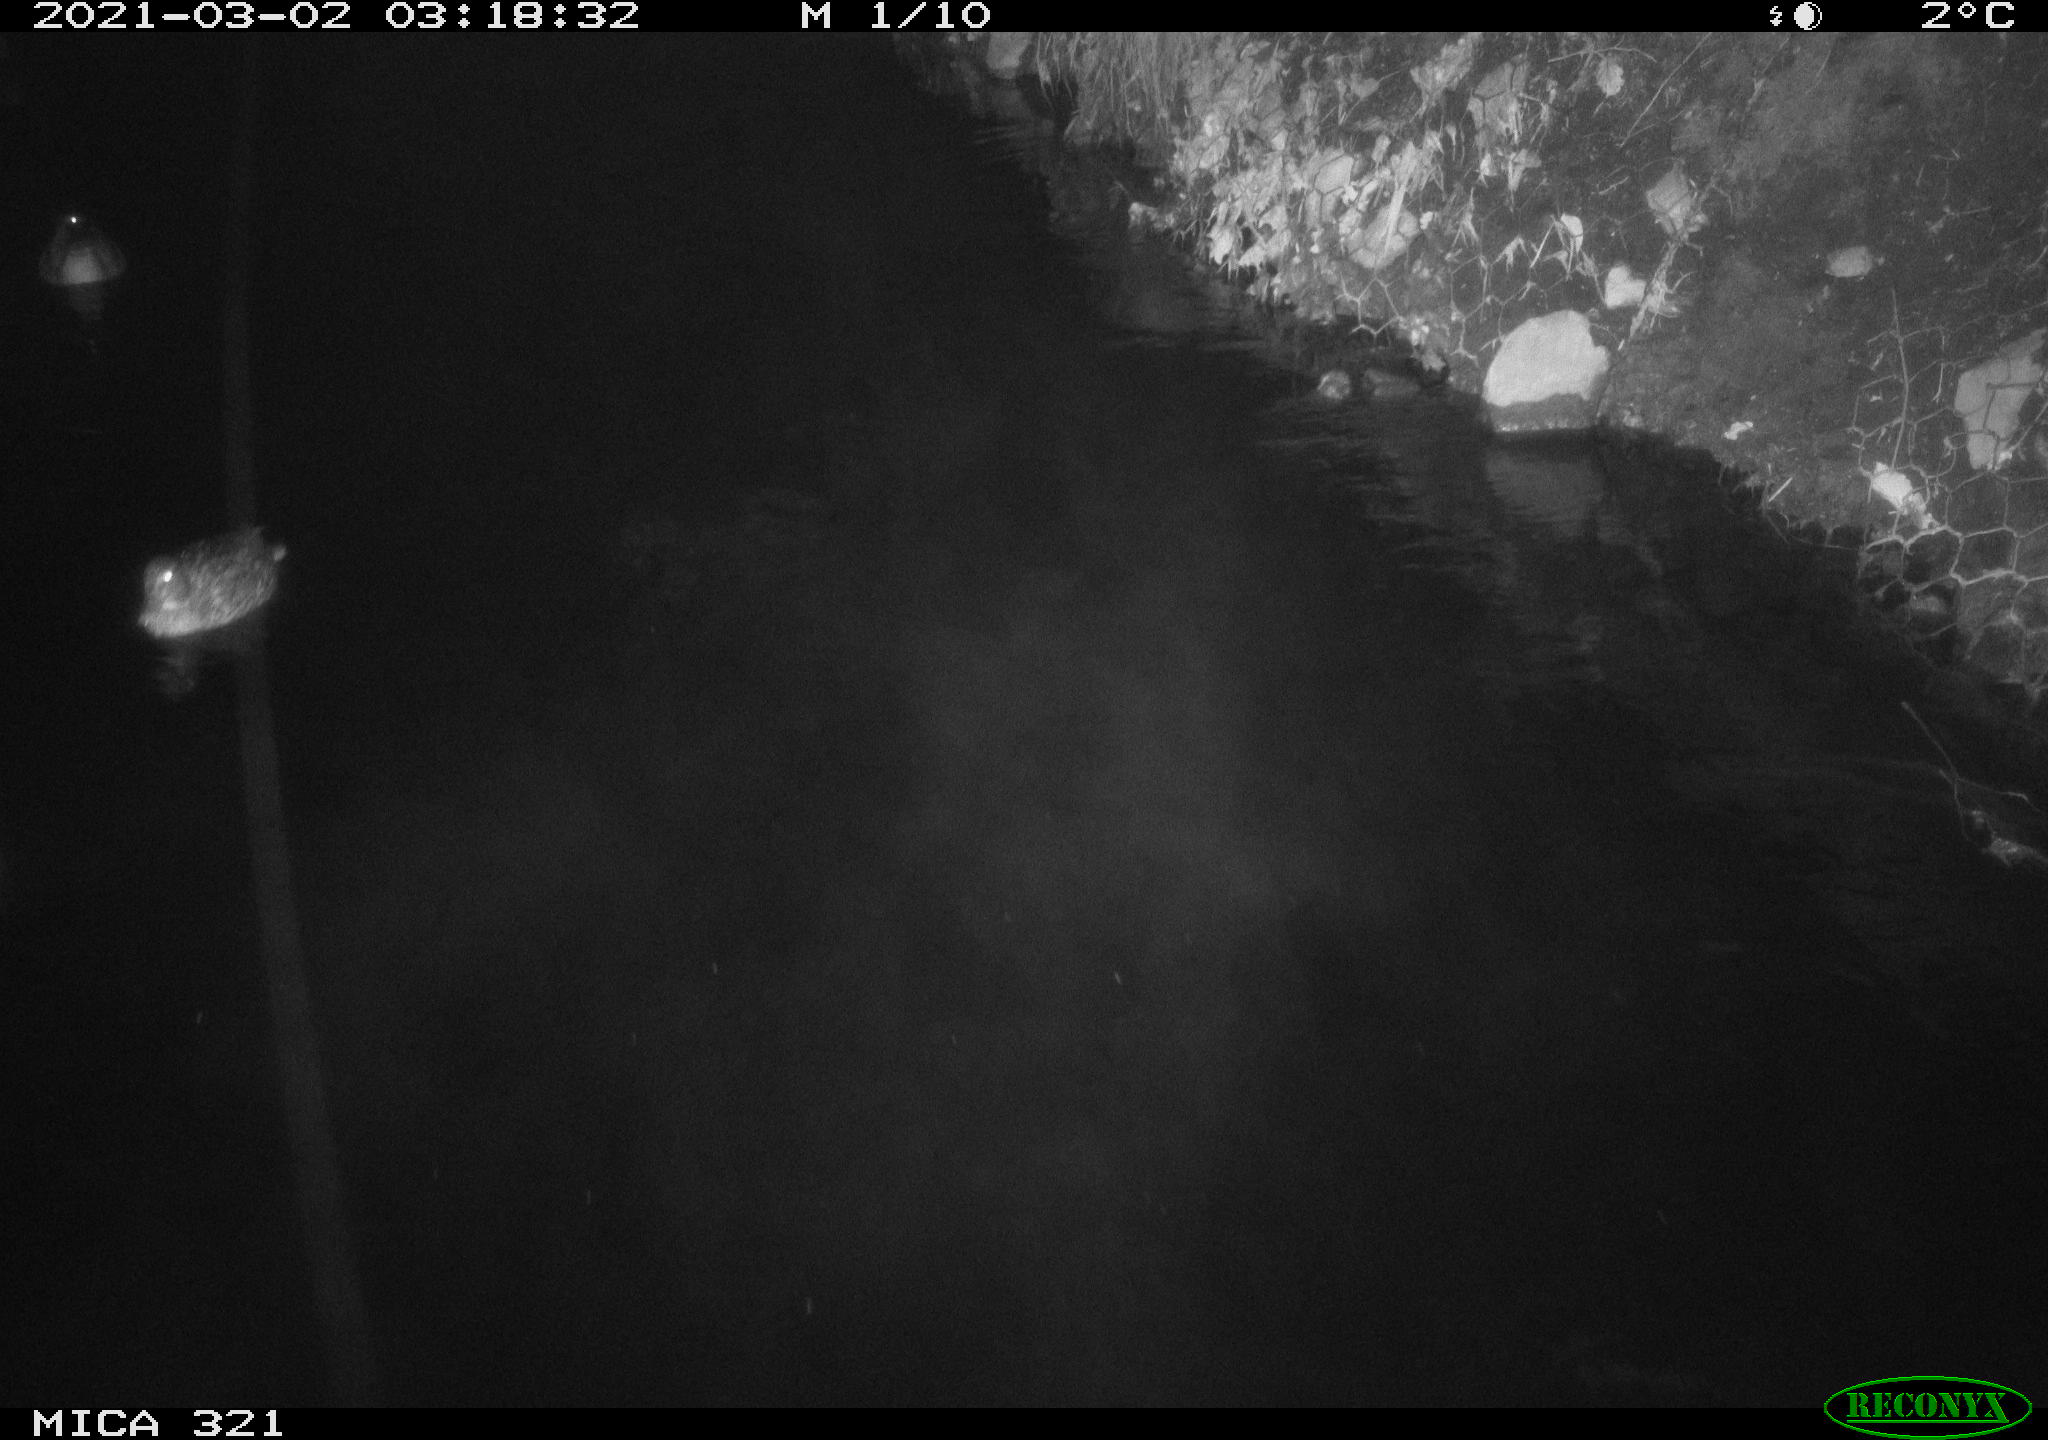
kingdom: Animalia
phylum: Chordata
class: Aves
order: Anseriformes
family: Anatidae
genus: Anas
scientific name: Anas platyrhynchos
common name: Mallard
